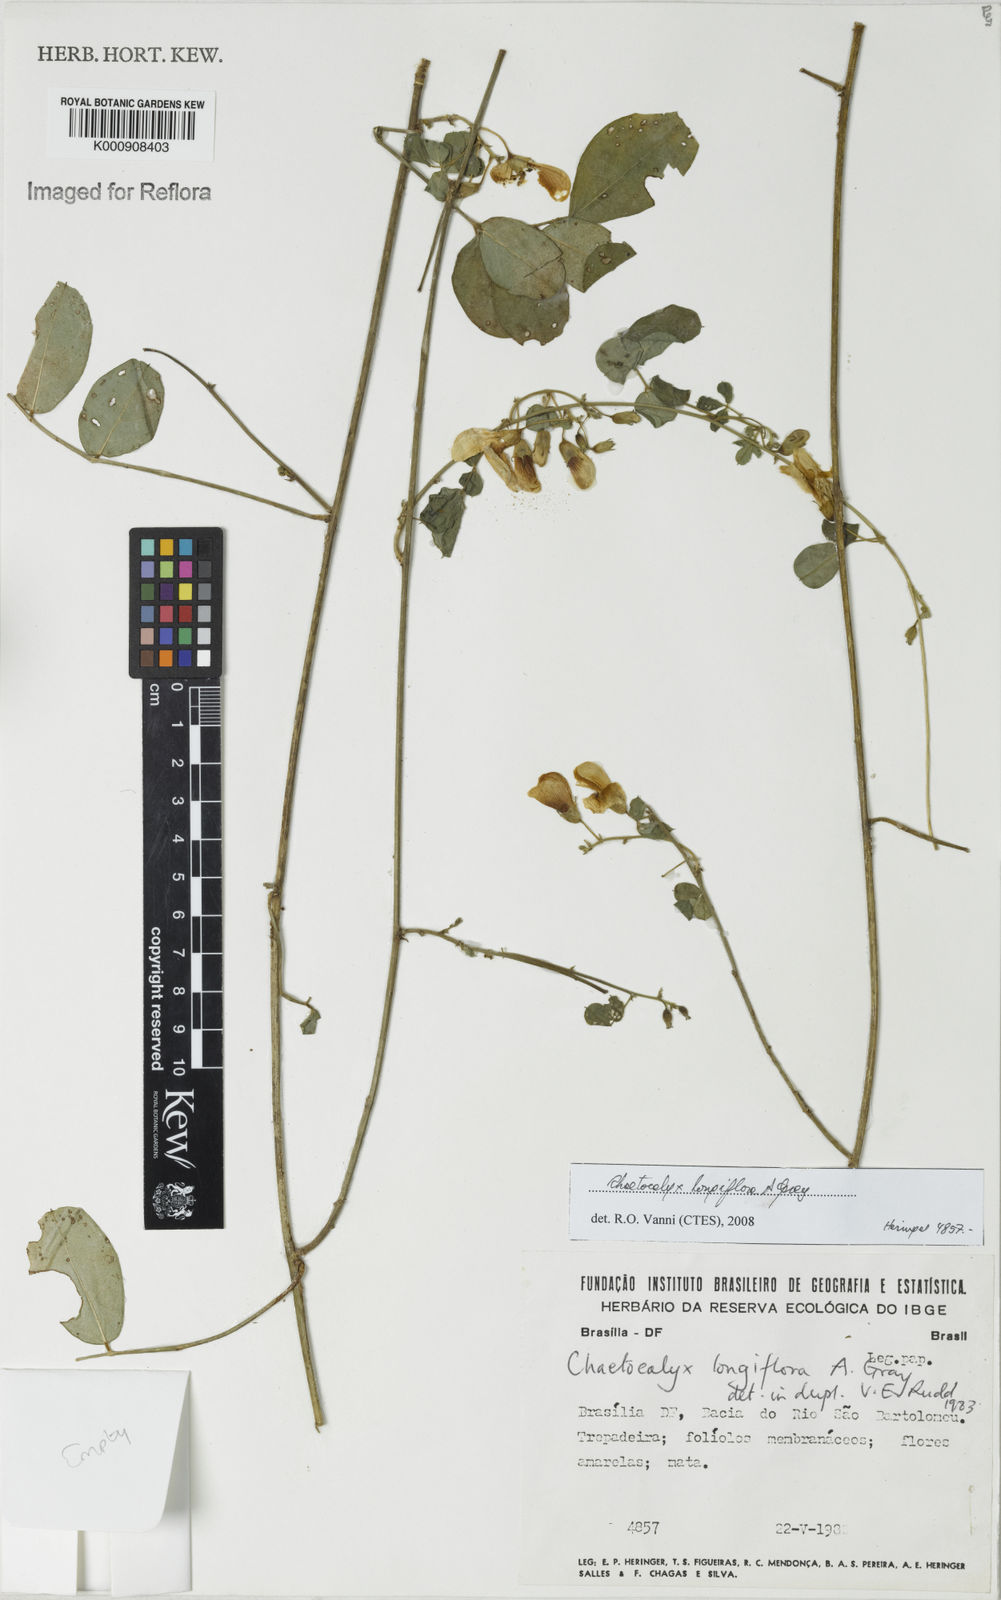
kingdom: Plantae
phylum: Tracheophyta
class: Magnoliopsida
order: Fabales
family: Fabaceae
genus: Nissolia
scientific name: Nissolia longiflora
